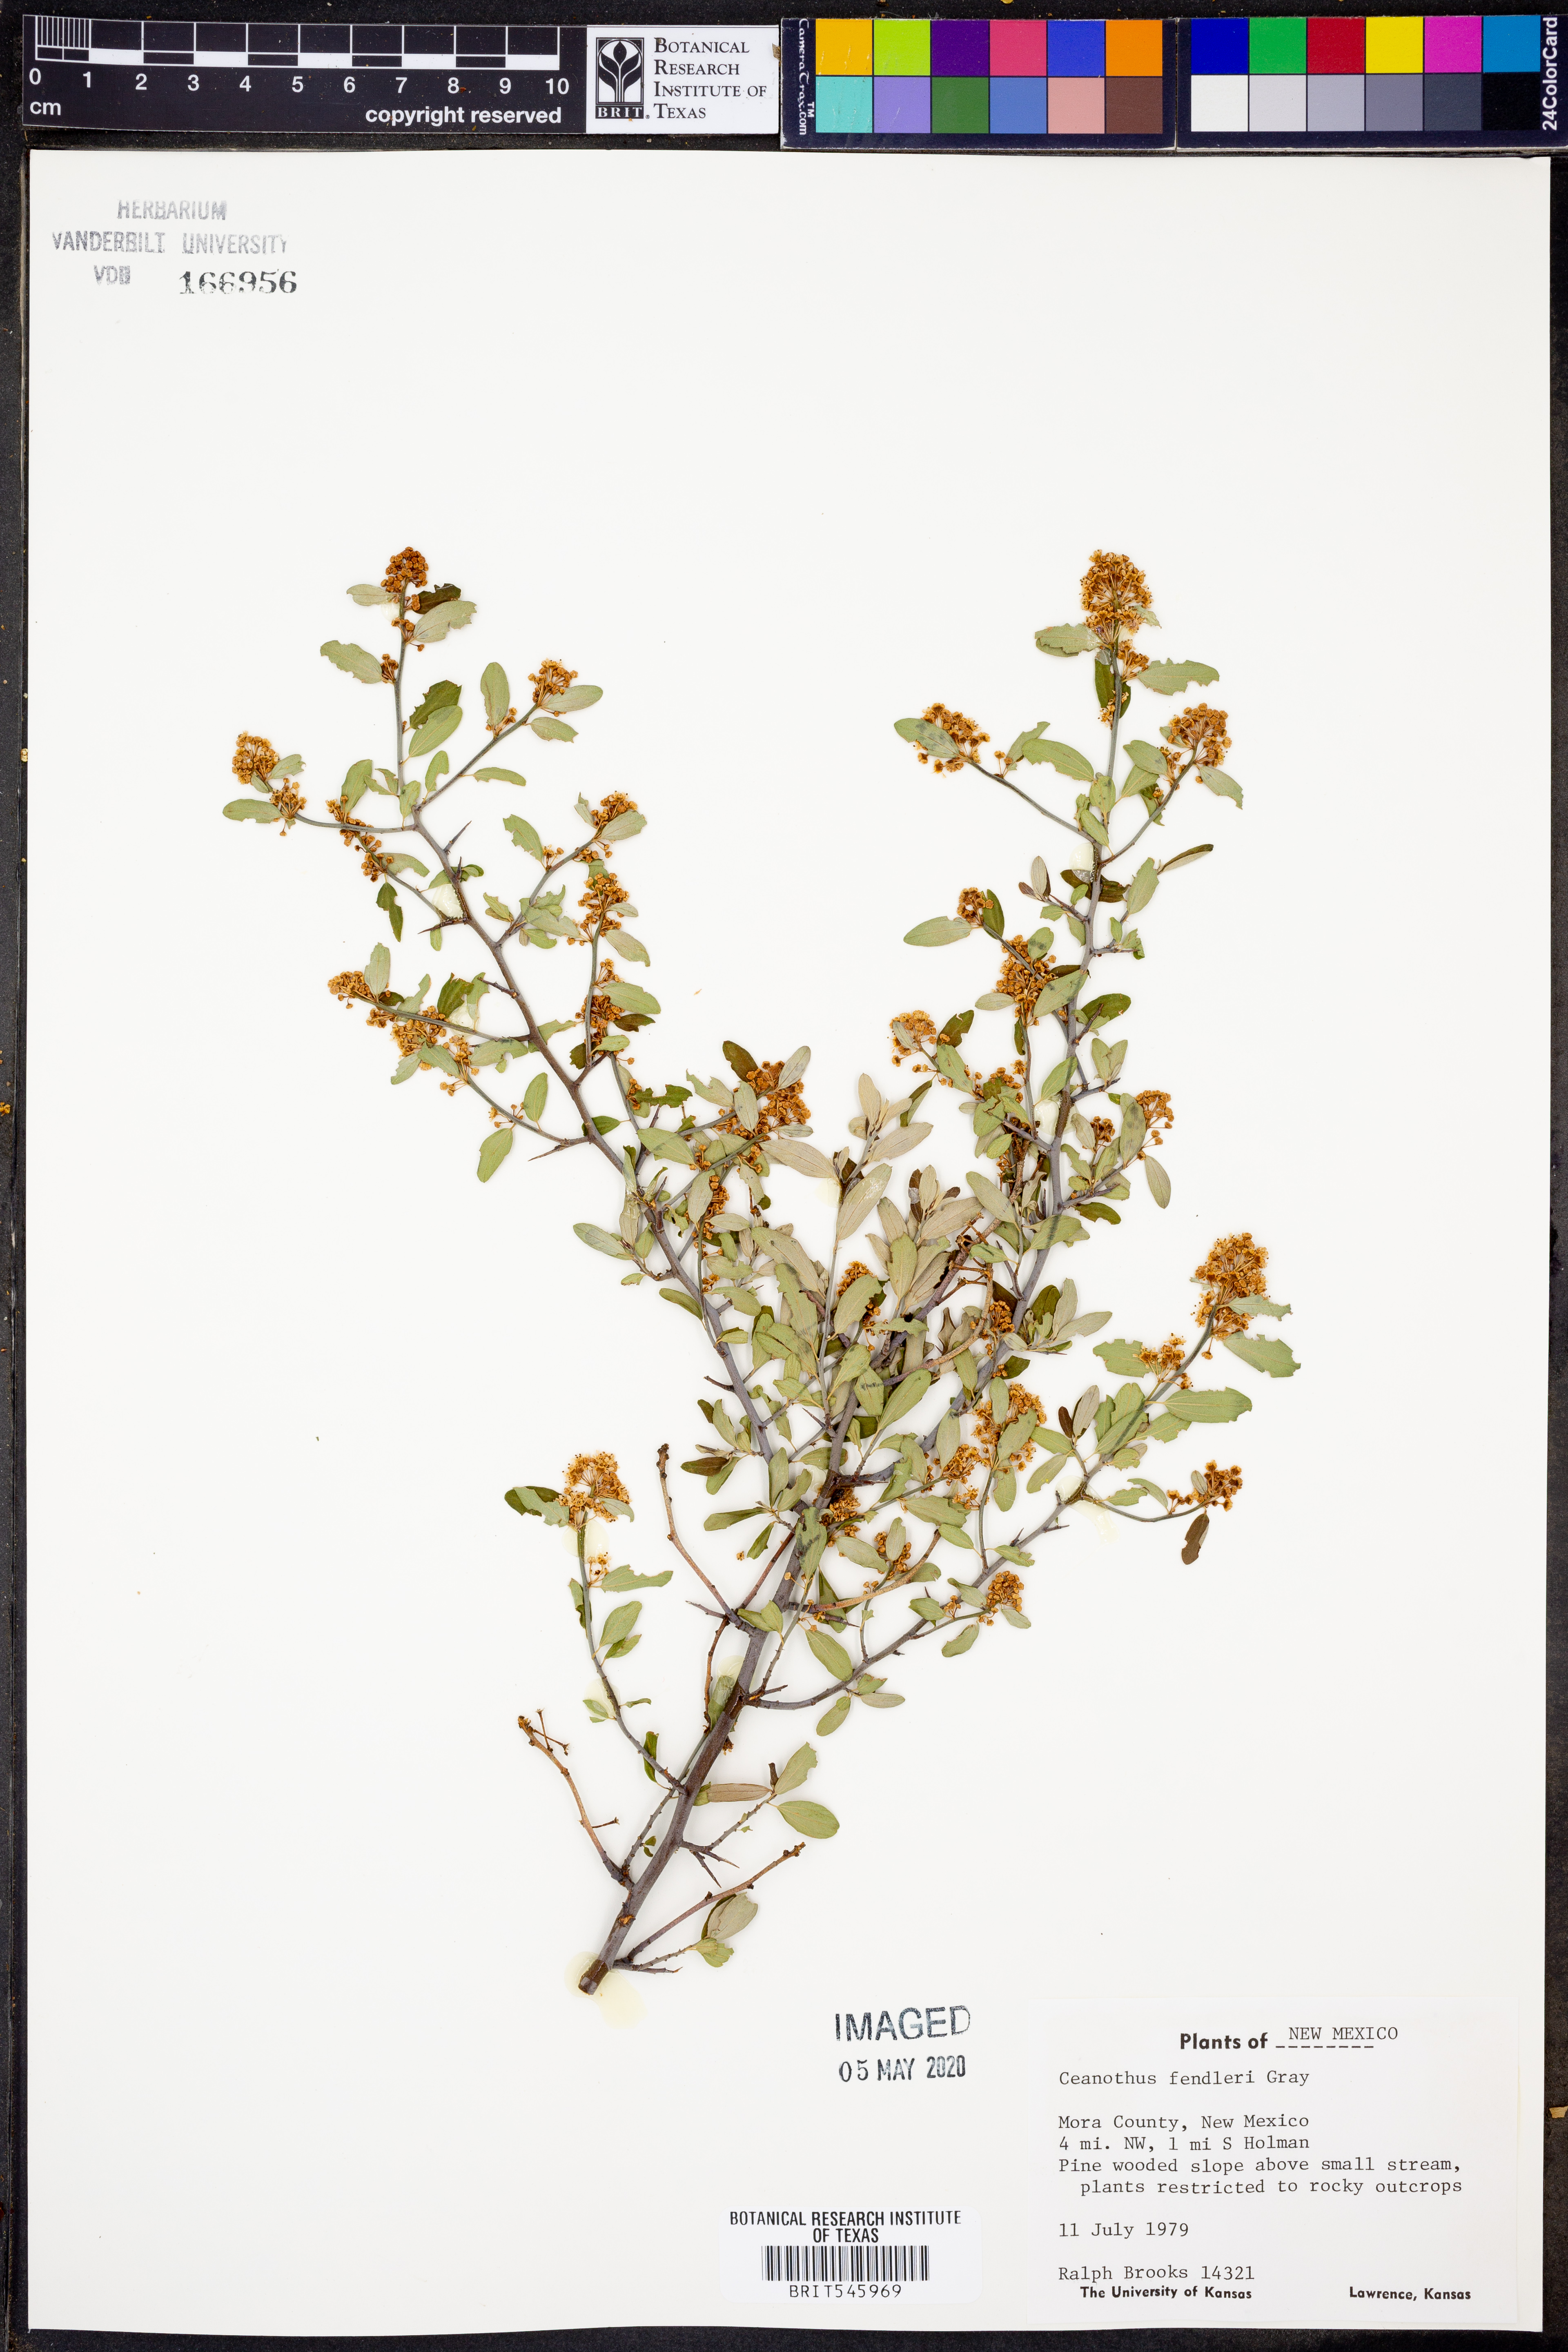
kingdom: Plantae
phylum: Tracheophyta
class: Magnoliopsida
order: Rosales
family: Rhamnaceae
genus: Ceanothus
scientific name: Ceanothus fendleri
